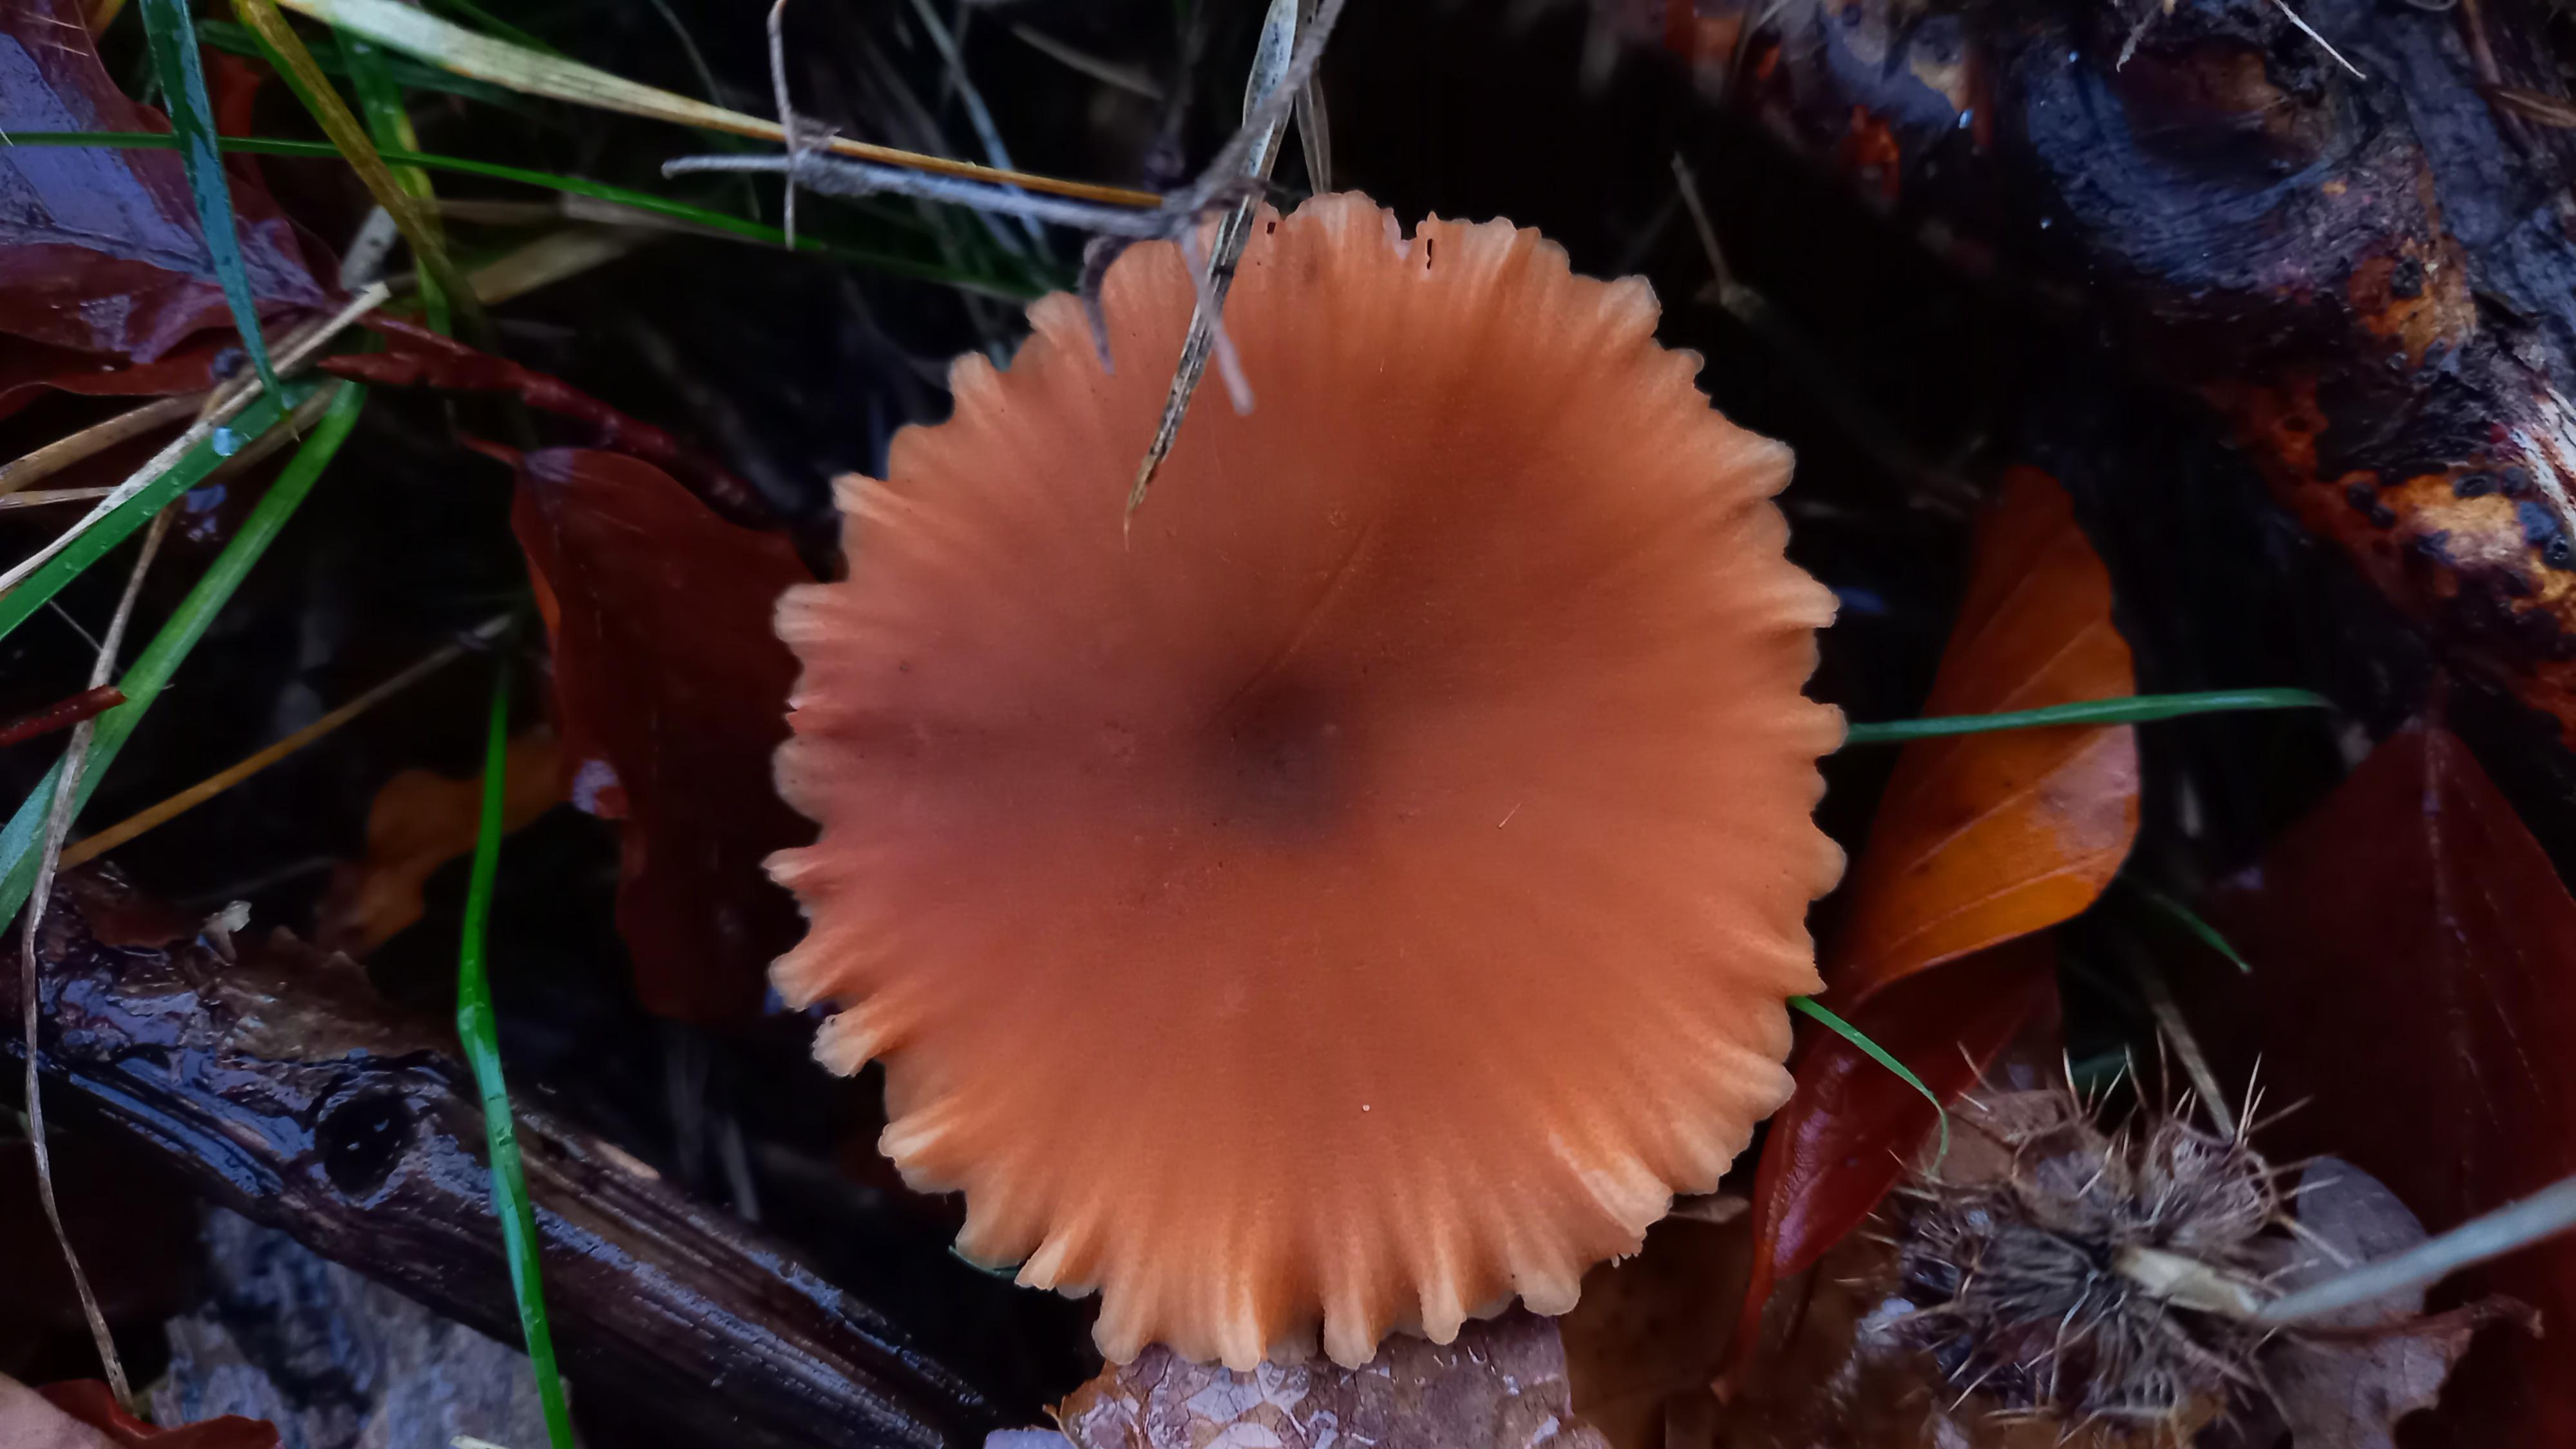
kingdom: Fungi
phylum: Basidiomycota
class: Agaricomycetes
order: Agaricales
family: Hydnangiaceae
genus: Laccaria
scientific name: Laccaria proxima
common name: stor ametysthat
